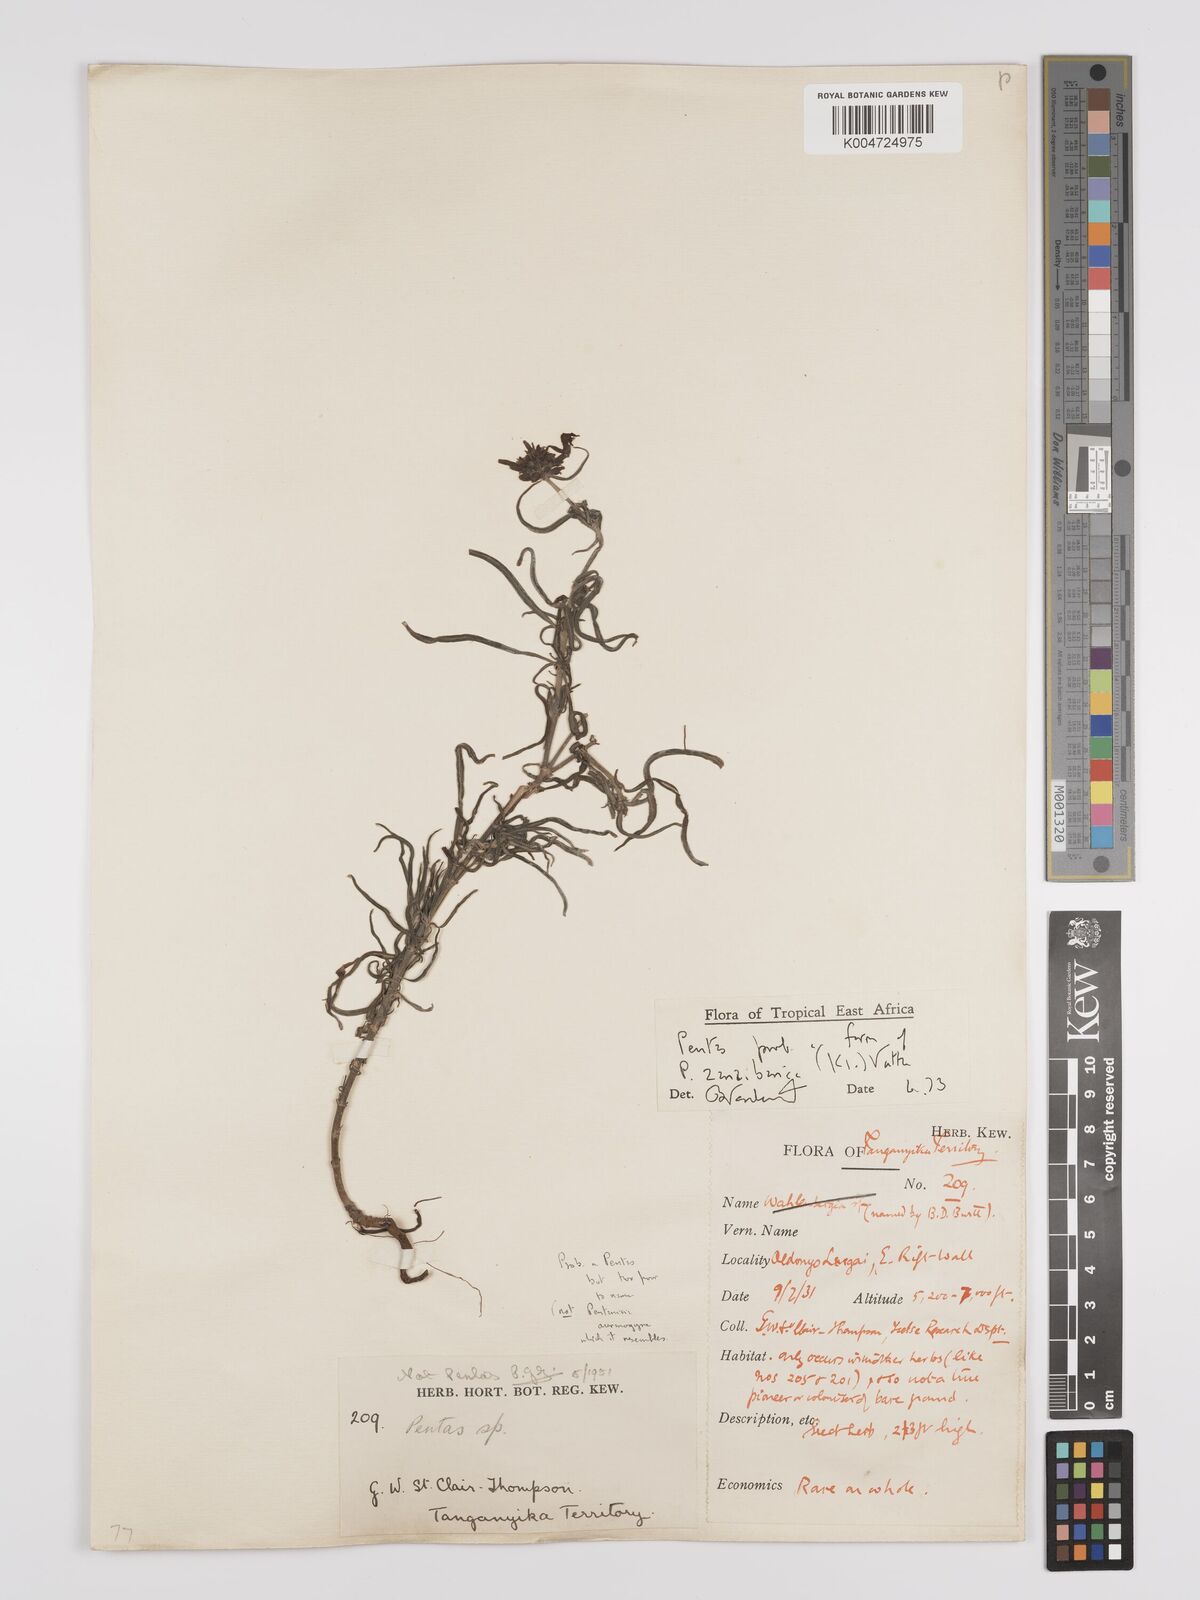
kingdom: Plantae
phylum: Tracheophyta
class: Magnoliopsida
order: Gentianales
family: Rubiaceae
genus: Pentas
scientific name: Pentas zanzibarica
